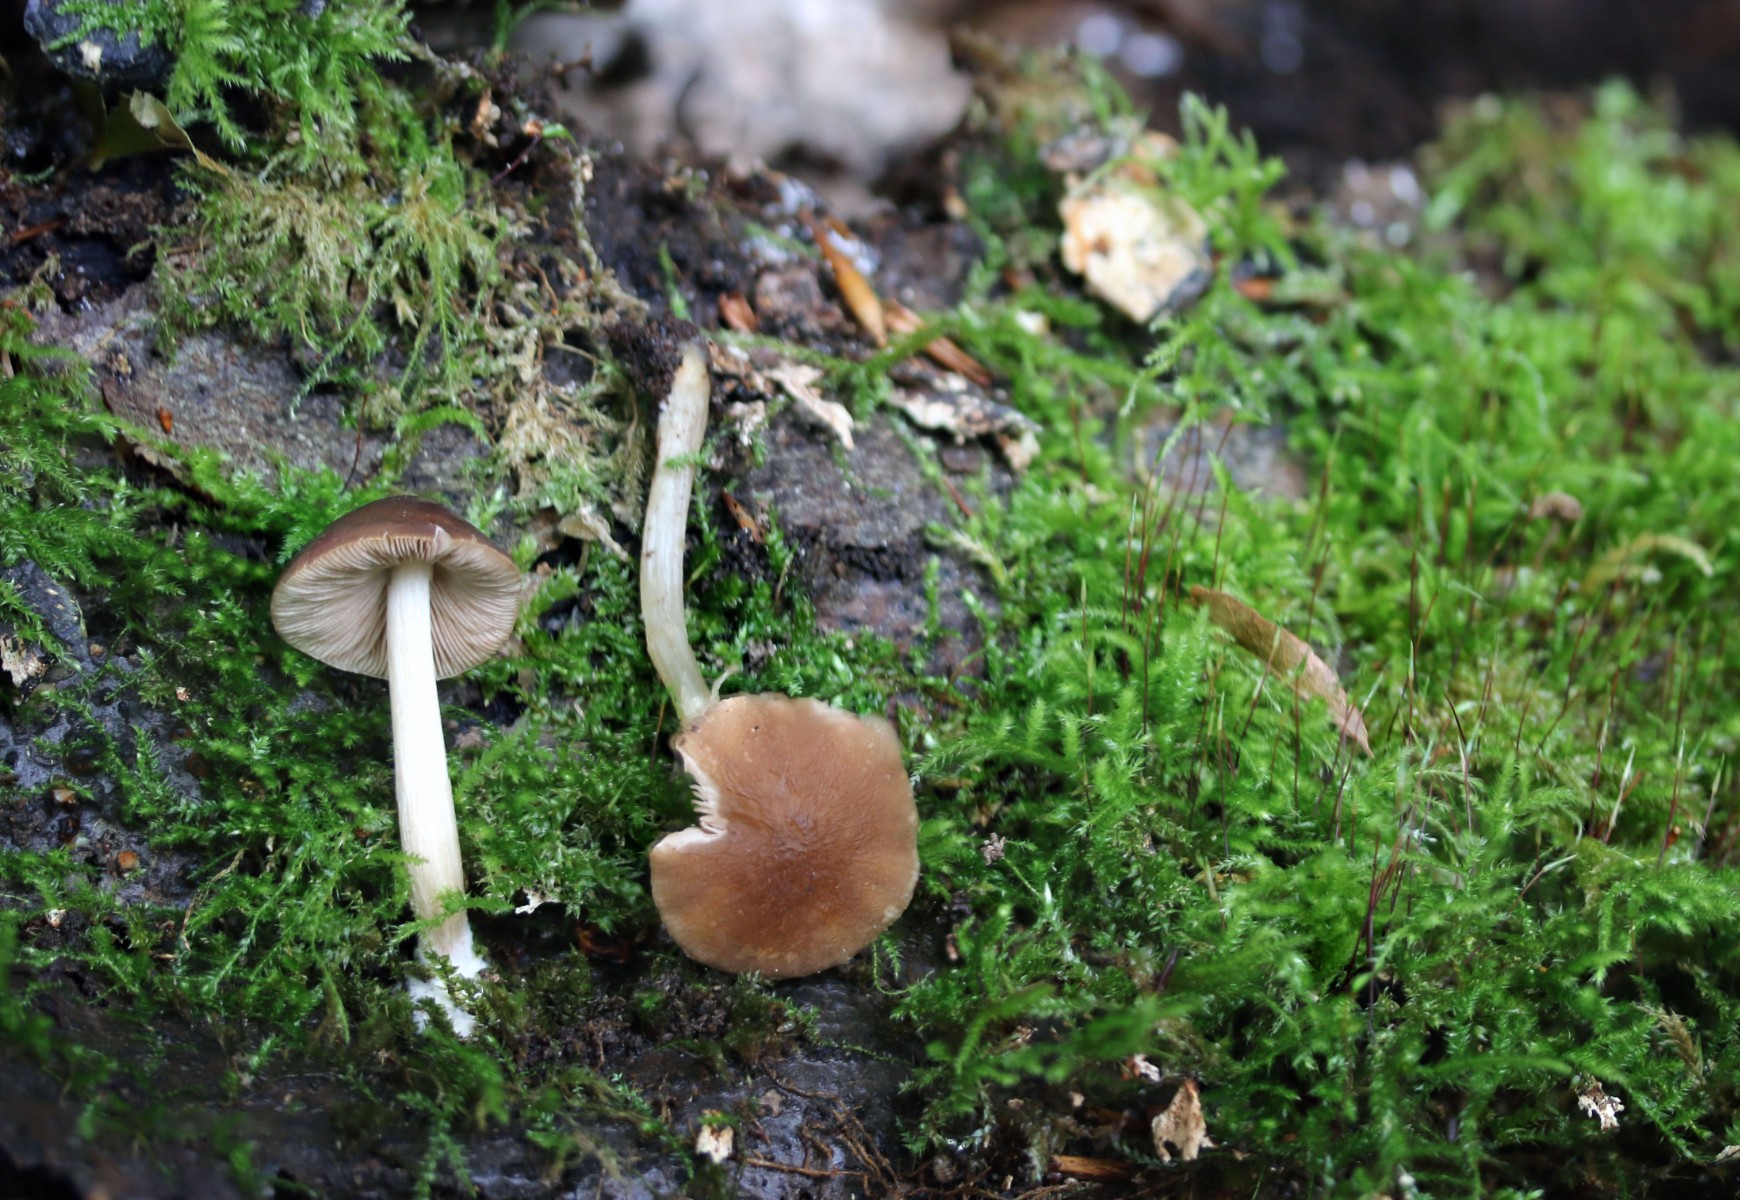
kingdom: Fungi
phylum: Basidiomycota
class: Agaricomycetes
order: Agaricales
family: Pluteaceae
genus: Pluteus
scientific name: Pluteus phlebophorus
